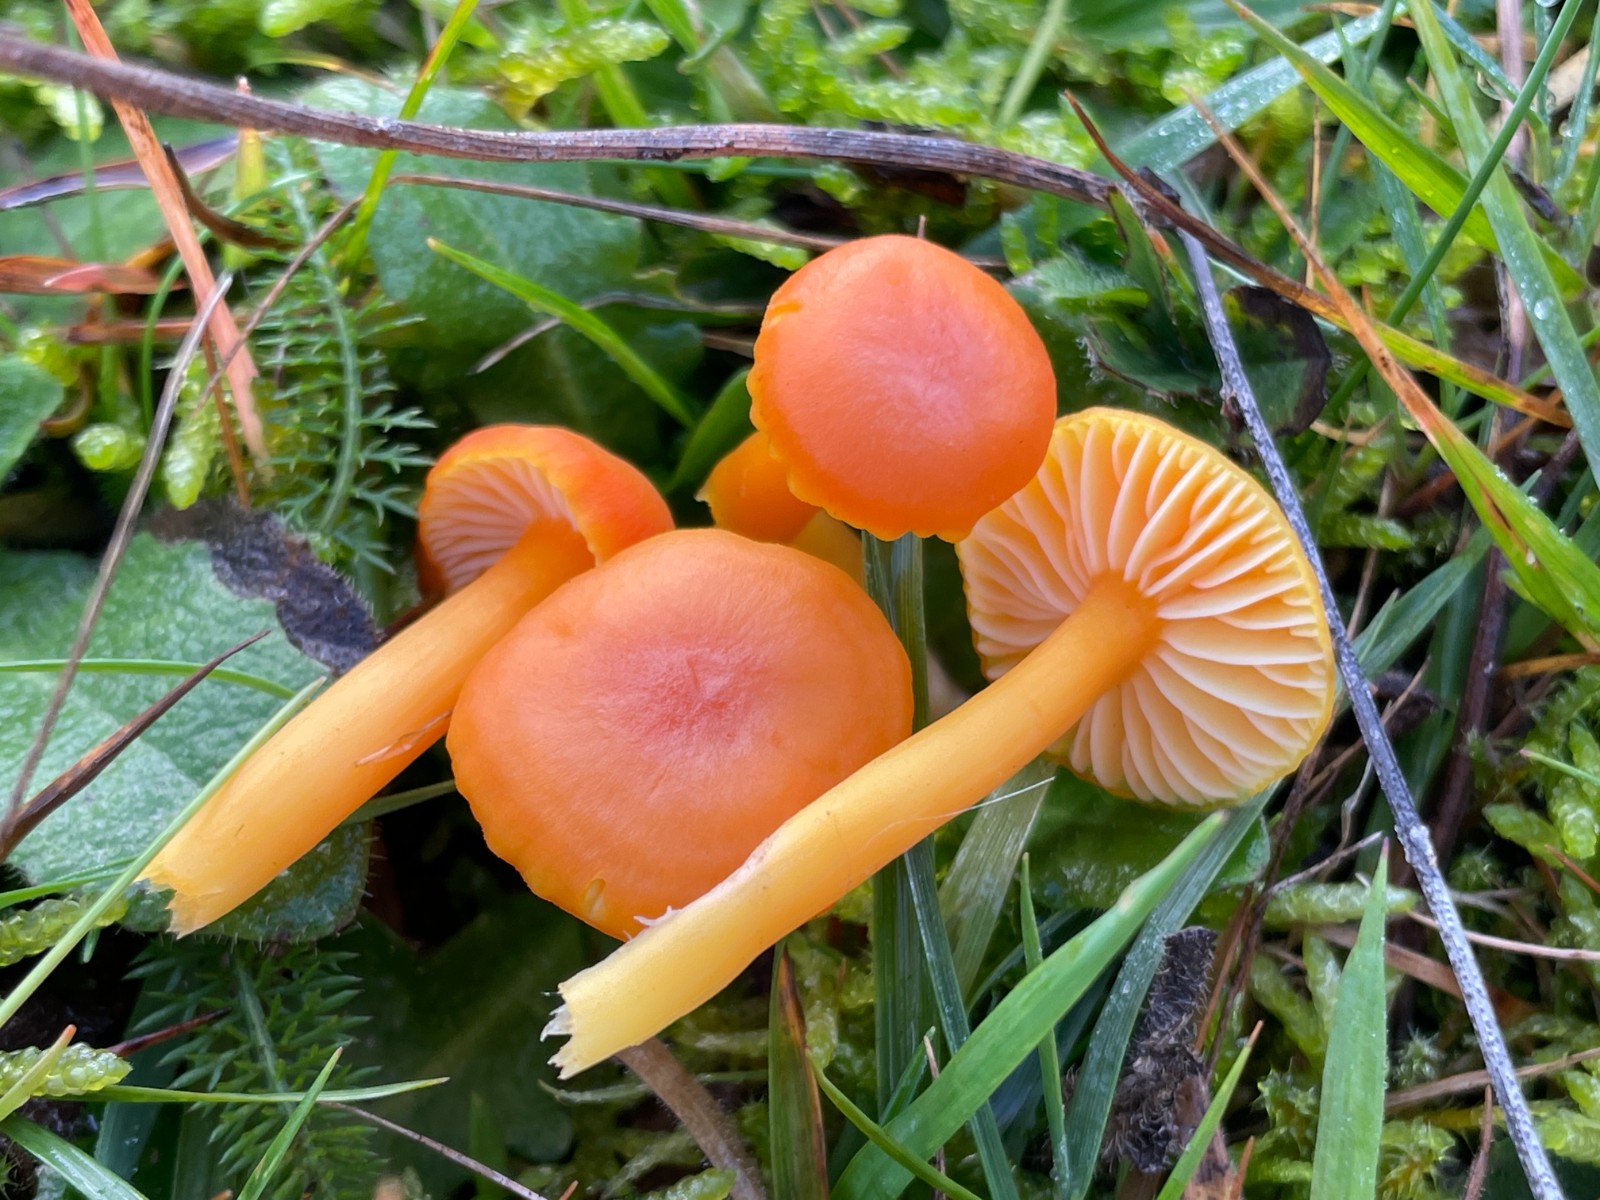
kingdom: Fungi
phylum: Basidiomycota
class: Agaricomycetes
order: Agaricales
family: Hygrophoraceae
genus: Hygrocybe
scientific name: Hygrocybe reidii
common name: honning-vokshat
